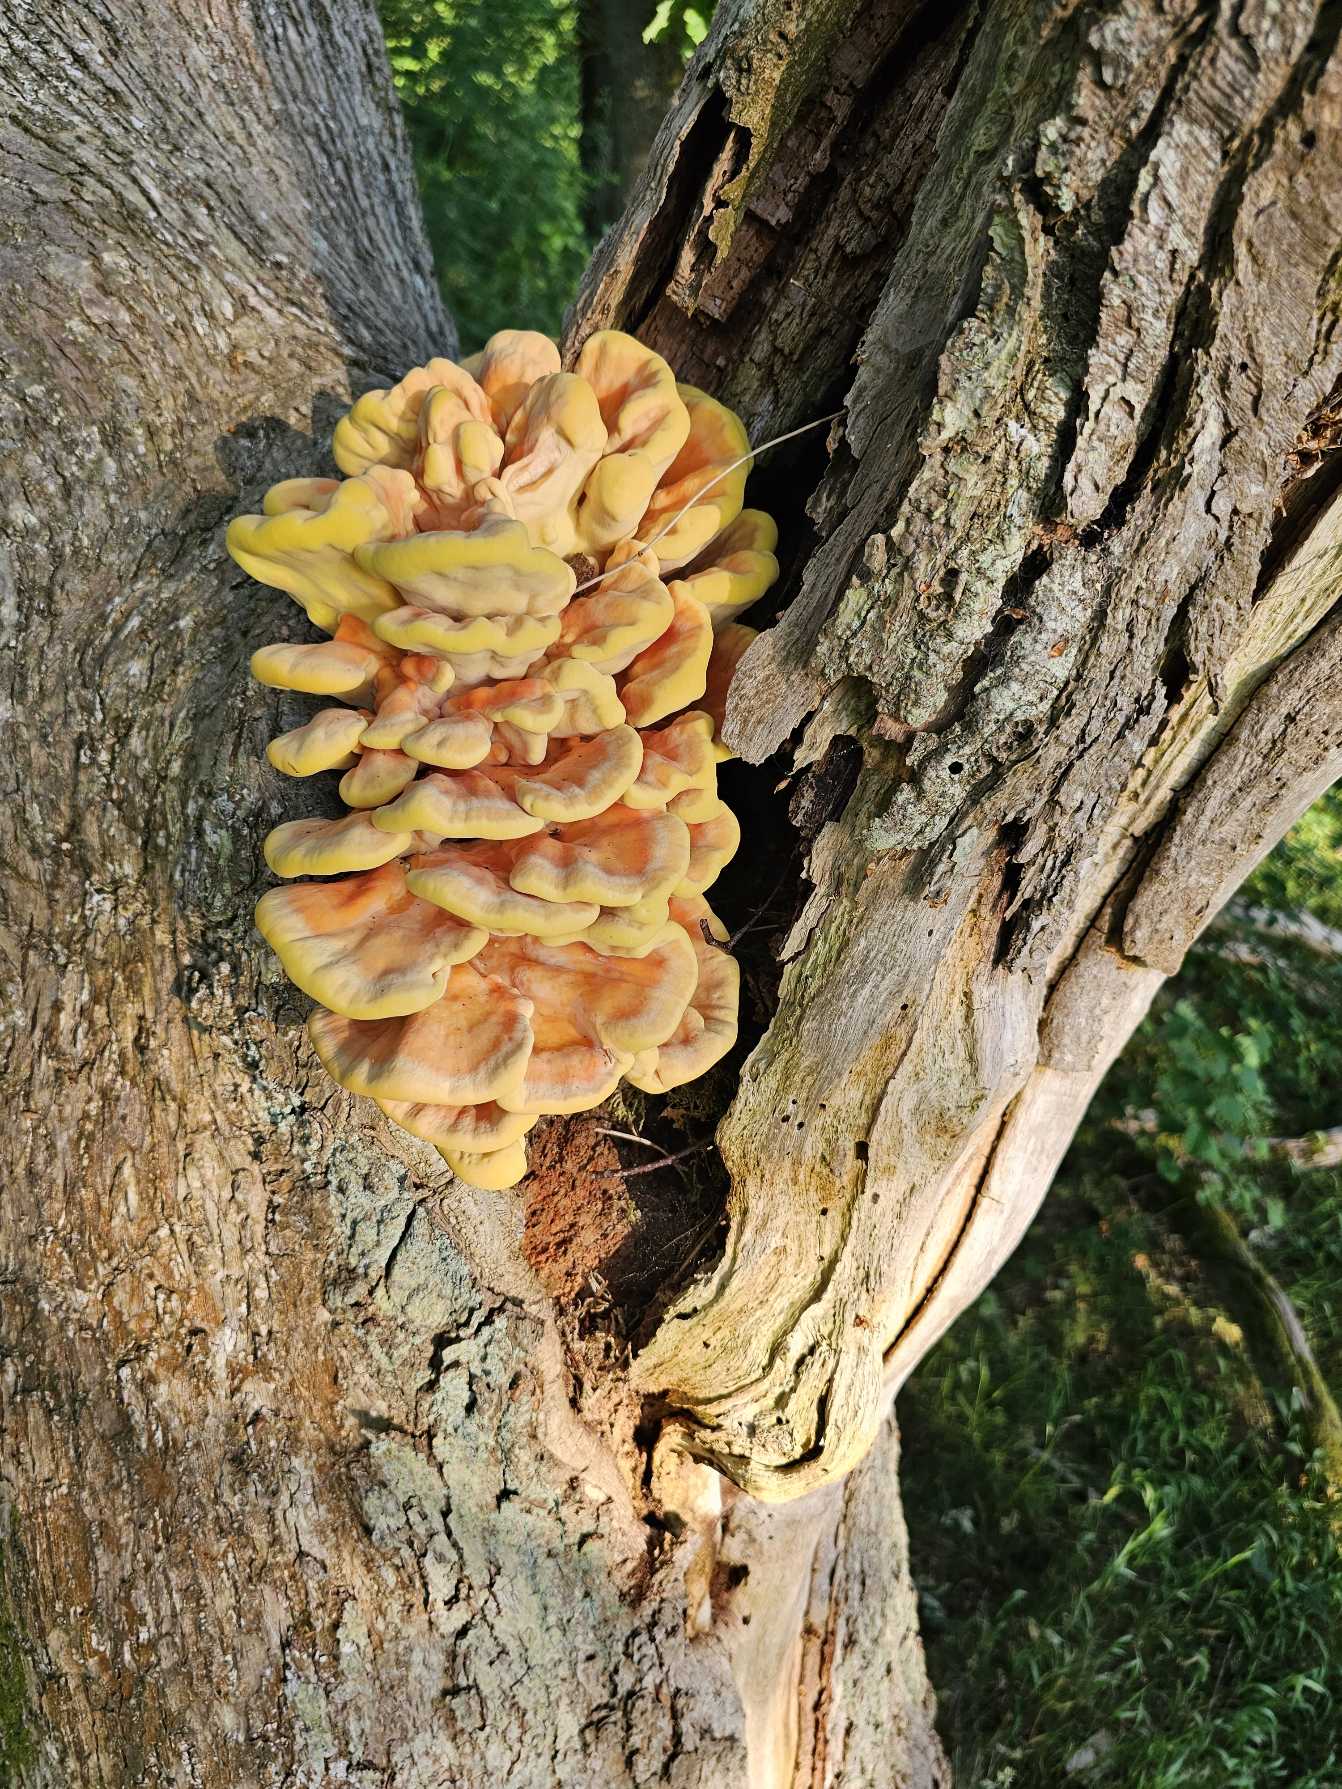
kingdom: Fungi
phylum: Basidiomycota
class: Agaricomycetes
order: Polyporales
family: Laetiporaceae
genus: Laetiporus
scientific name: Laetiporus sulphureus
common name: Svovlporesvamp
